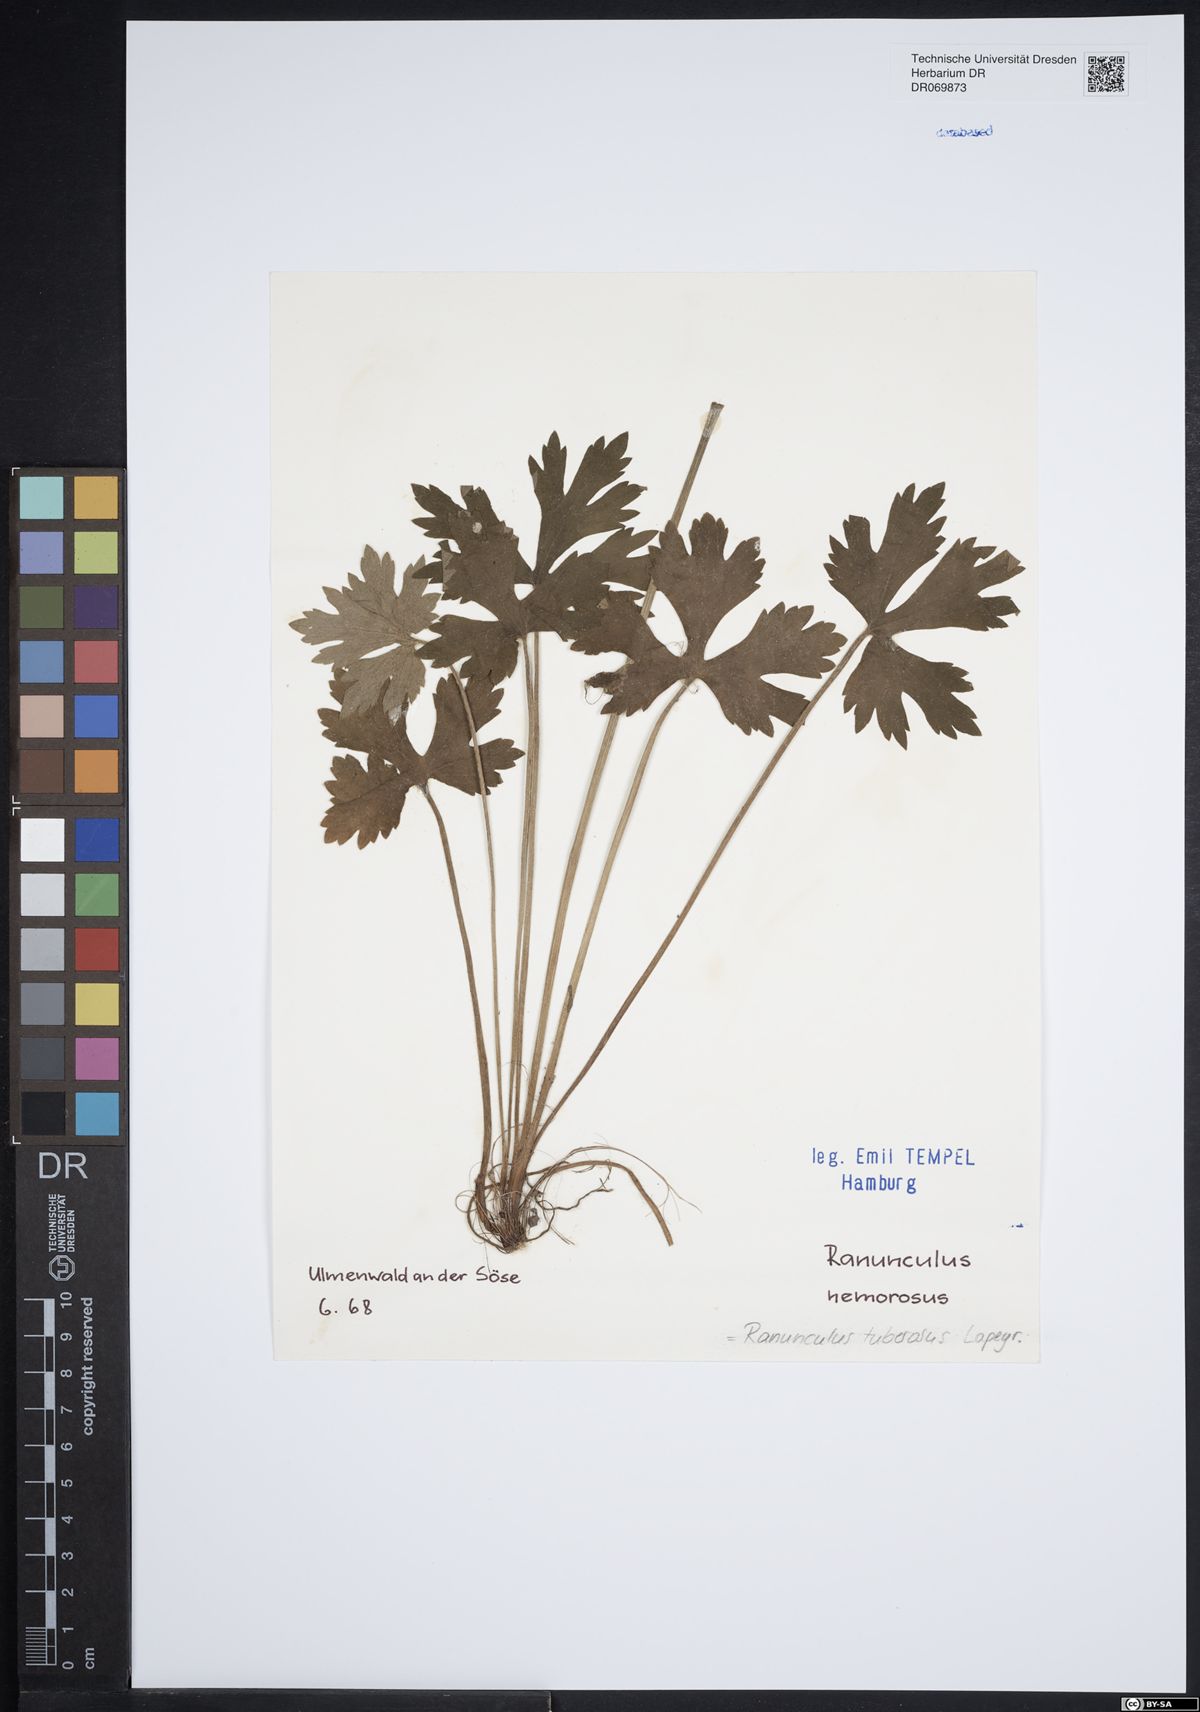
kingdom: Plantae
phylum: Tracheophyta
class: Magnoliopsida
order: Ranunculales
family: Ranunculaceae
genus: Ranunculus
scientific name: Ranunculus polyanthemos
